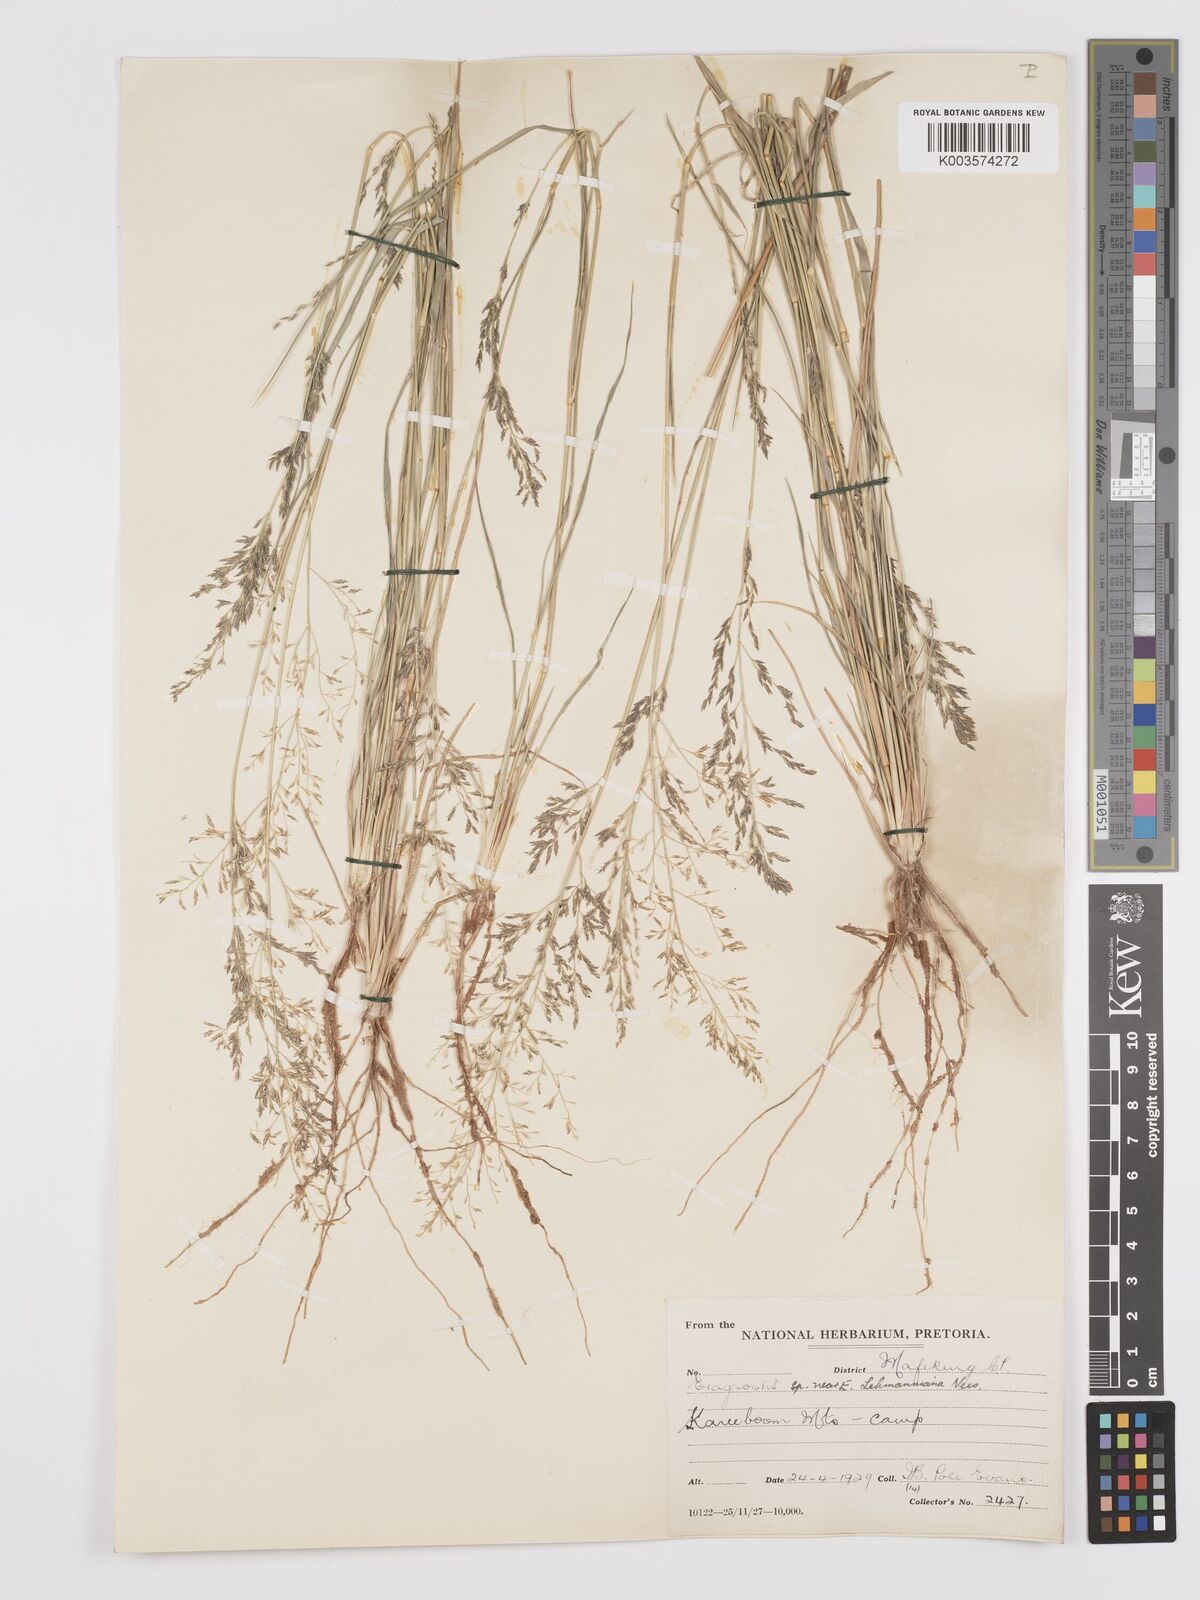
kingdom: Plantae
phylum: Tracheophyta
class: Liliopsida
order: Poales
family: Poaceae
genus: Eragrostis
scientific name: Eragrostis micrantha
